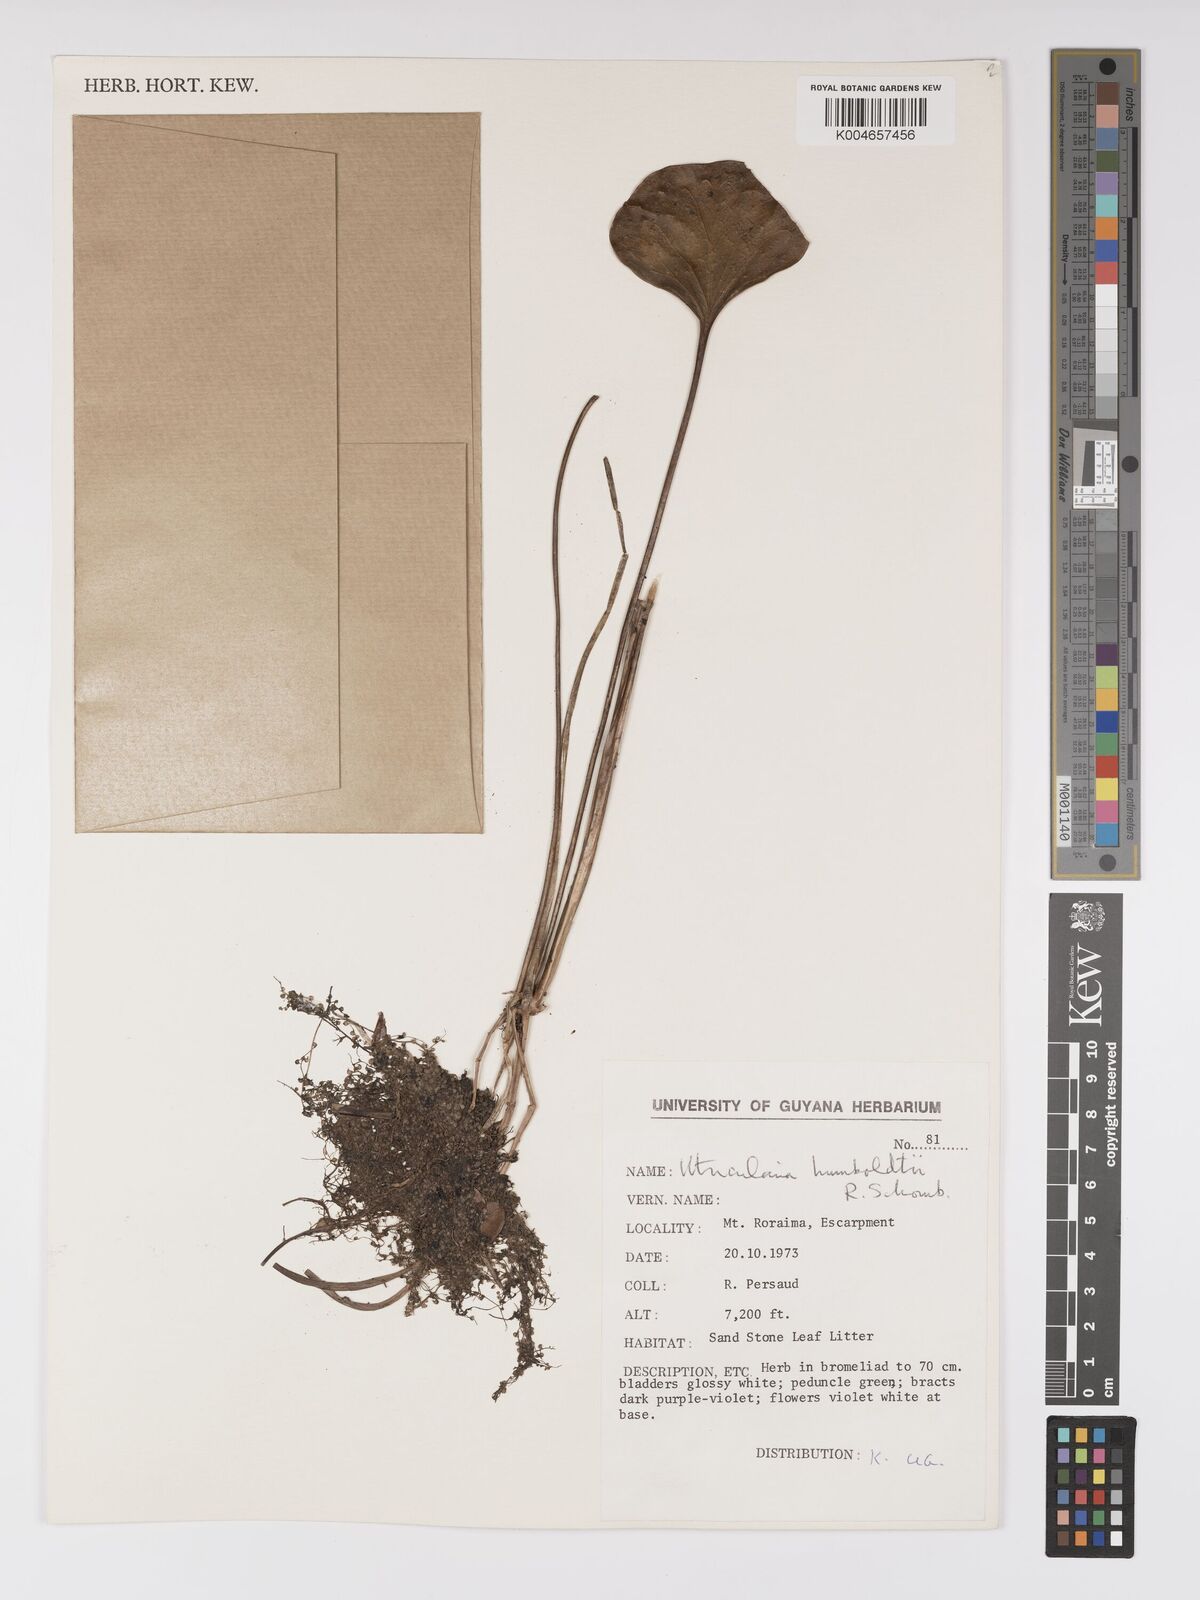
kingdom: Plantae
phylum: Tracheophyta
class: Magnoliopsida
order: Lamiales
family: Lentibulariaceae
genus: Utricularia
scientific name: Utricularia humboldtii
